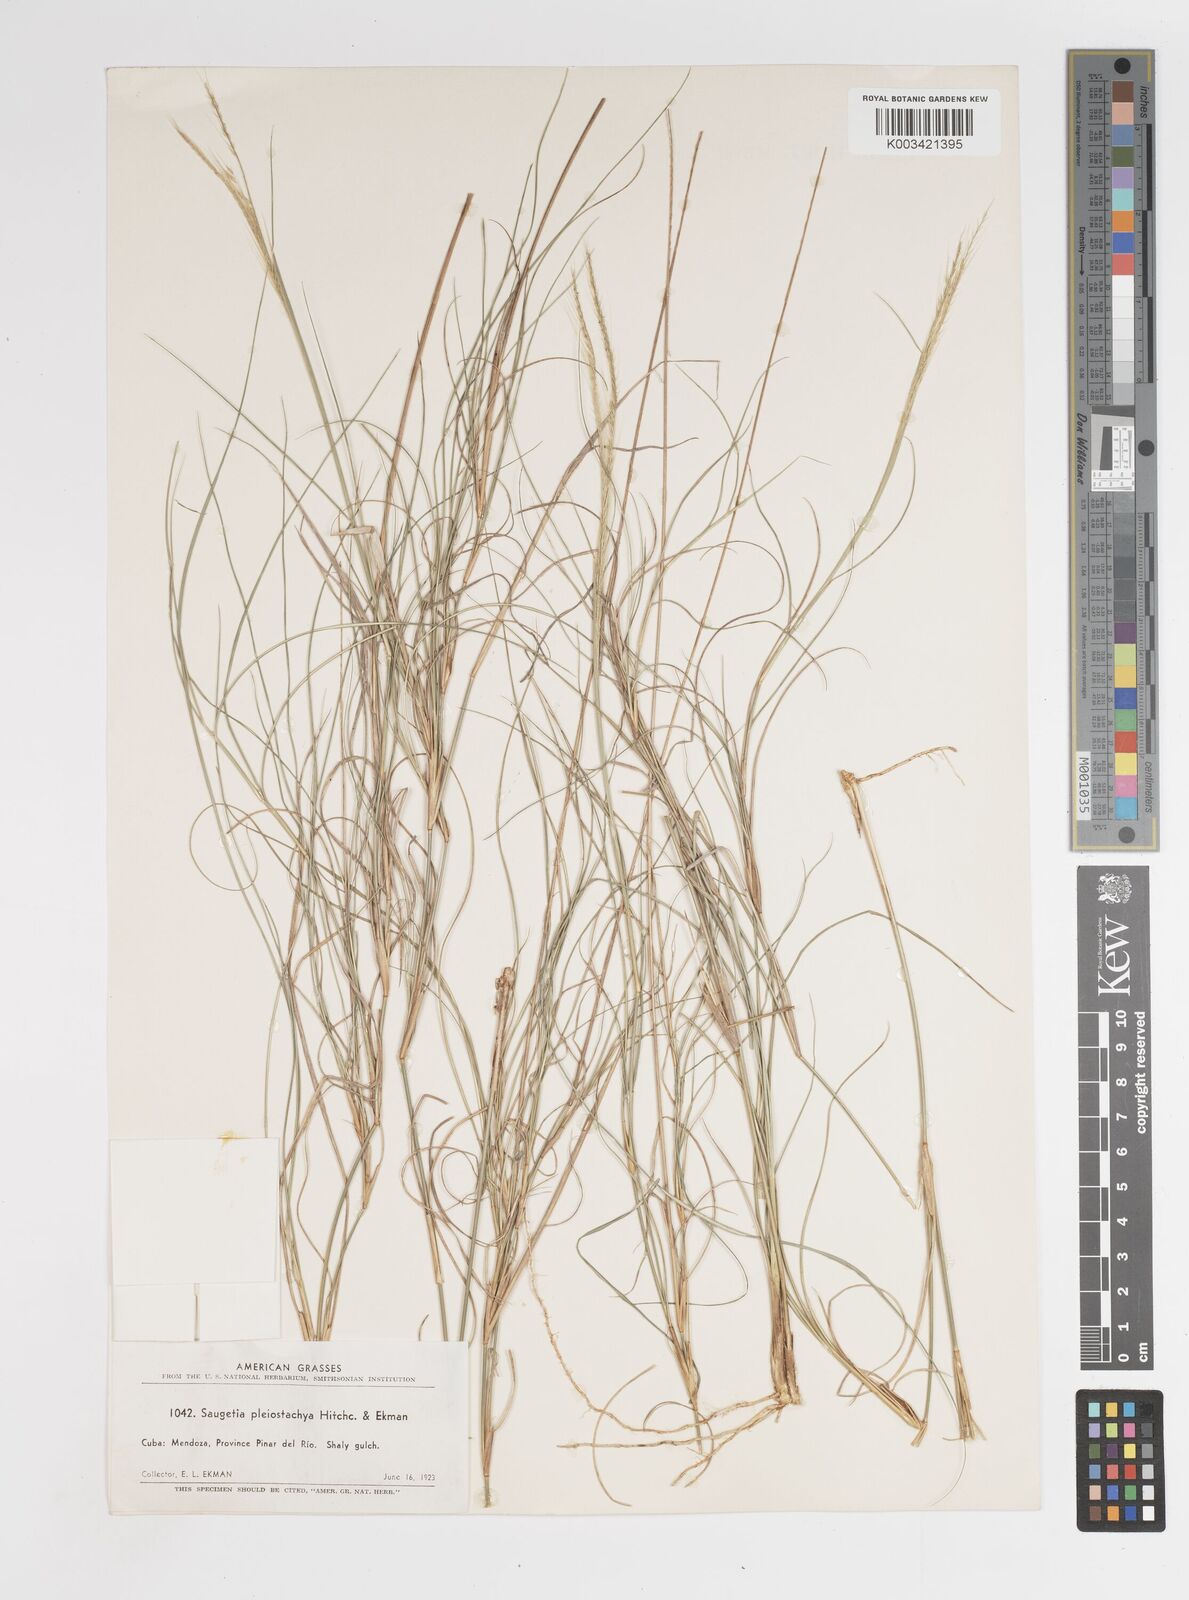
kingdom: Plantae
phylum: Tracheophyta
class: Liliopsida
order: Poales
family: Poaceae
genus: Enteropogon
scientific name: Enteropogon
